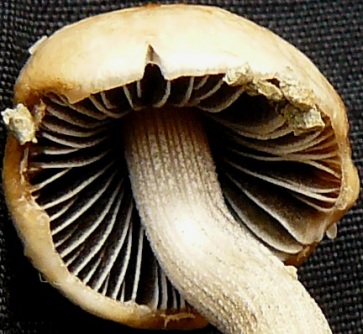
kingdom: Fungi
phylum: Basidiomycota
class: Agaricomycetes
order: Agaricales
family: Bolbitiaceae
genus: Panaeolus
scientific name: Panaeolus semiovatus
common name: ring-glanshat
